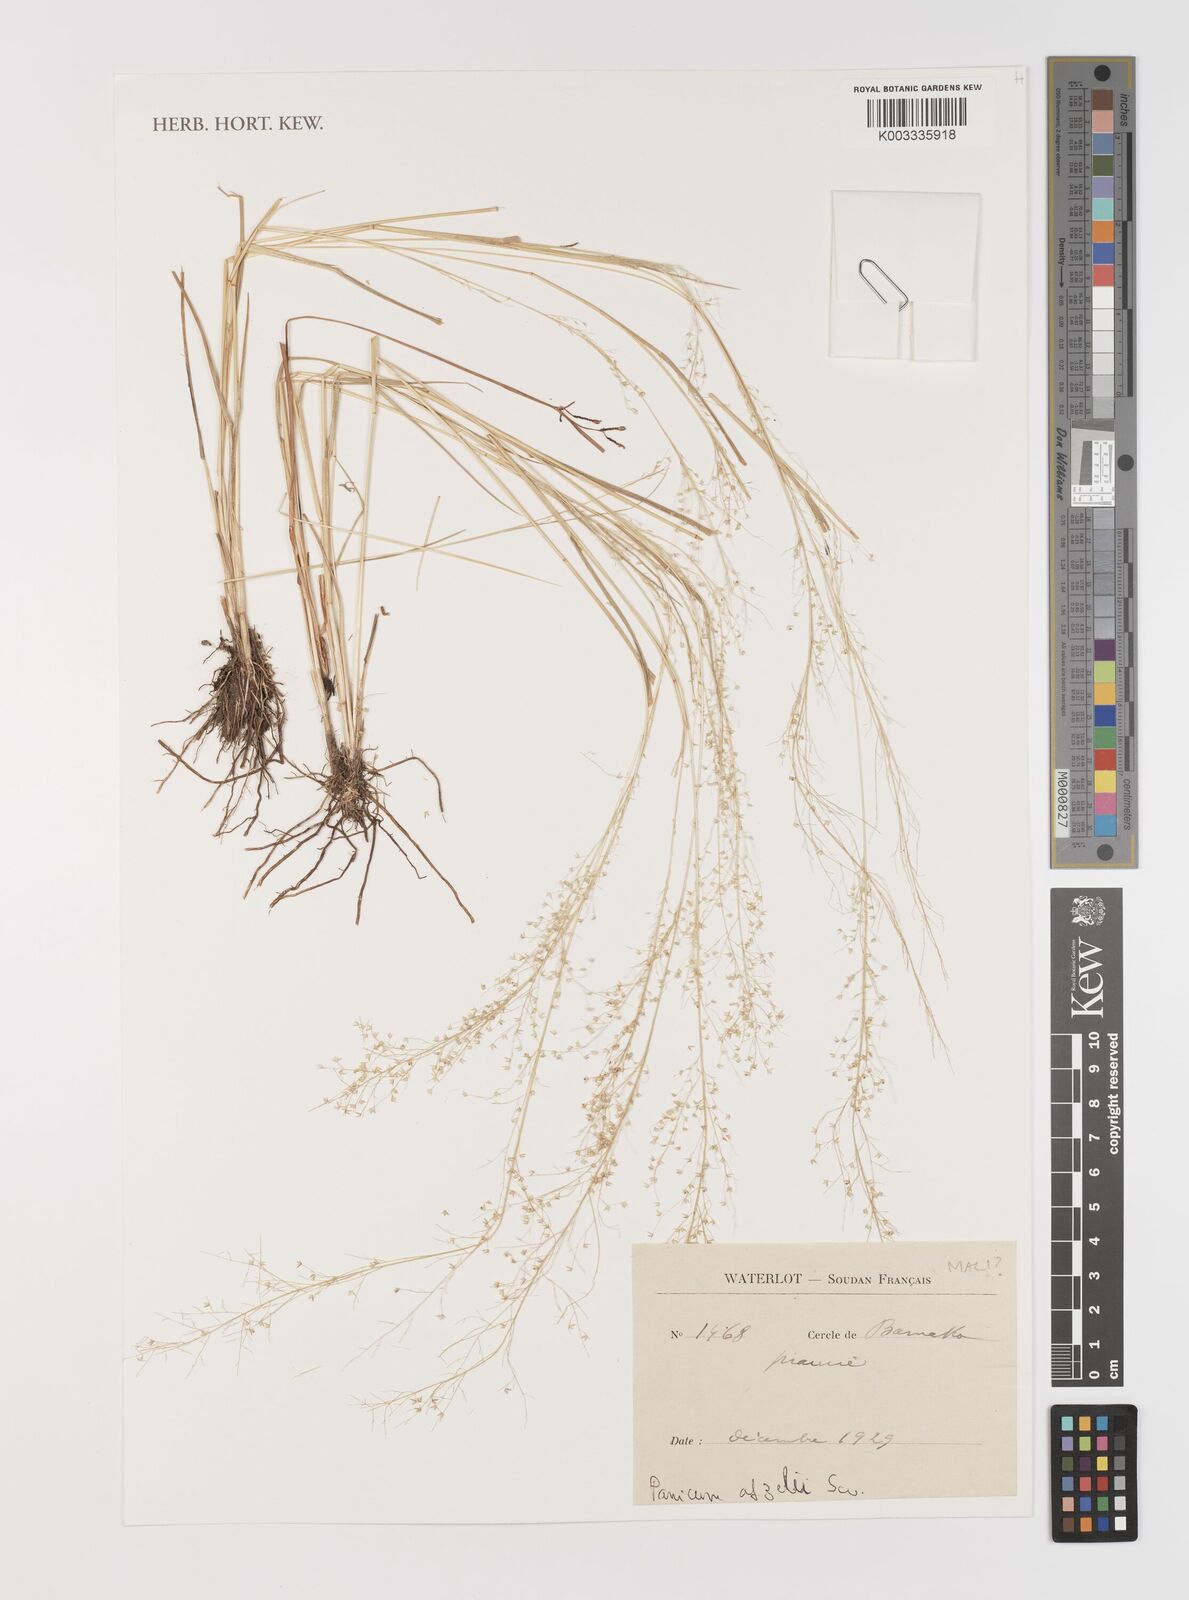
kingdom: Plantae
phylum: Tracheophyta
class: Liliopsida
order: Poales
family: Poaceae
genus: Panicum
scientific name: Panicum afzelii
